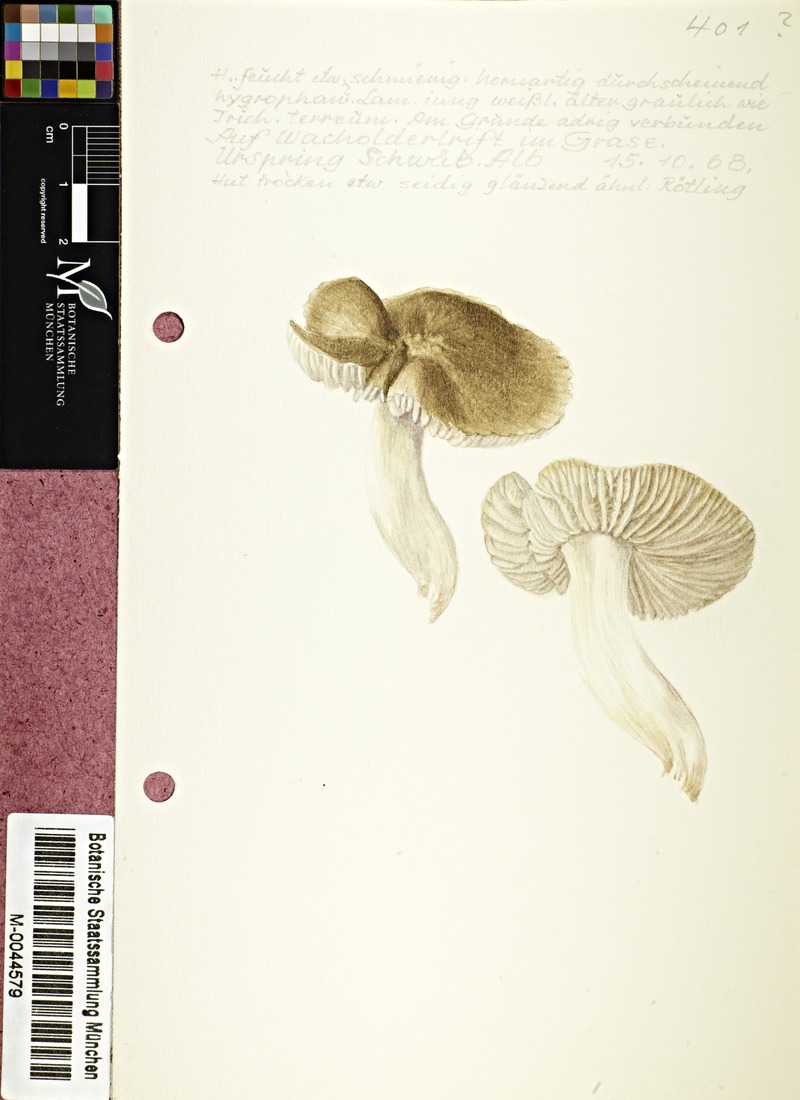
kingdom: Fungi
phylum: Basidiomycota
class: Agaricomycetes
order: Agaricales
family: Tricholomataceae
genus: Tricholoma
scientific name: Tricholoma terreum
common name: Grey knight
